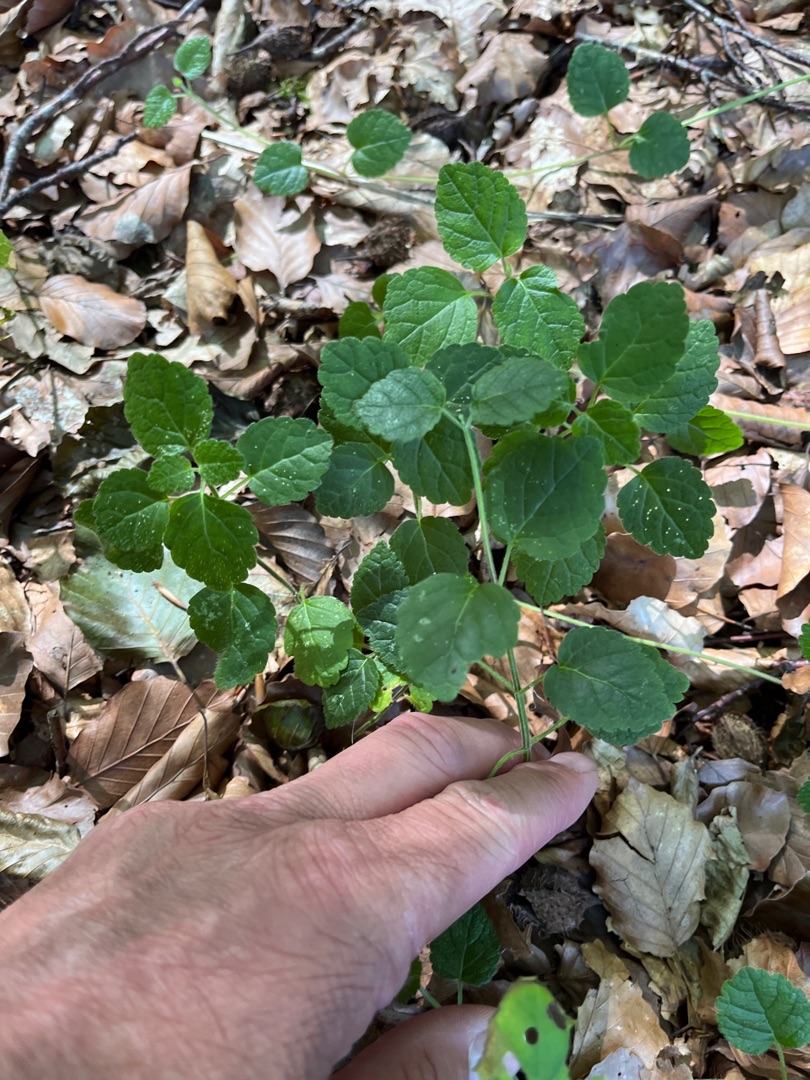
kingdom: Plantae
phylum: Tracheophyta
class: Magnoliopsida
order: Lamiales
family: Lamiaceae
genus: Lamium
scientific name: Lamium galeobdolon
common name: Almindelig guldnælde
